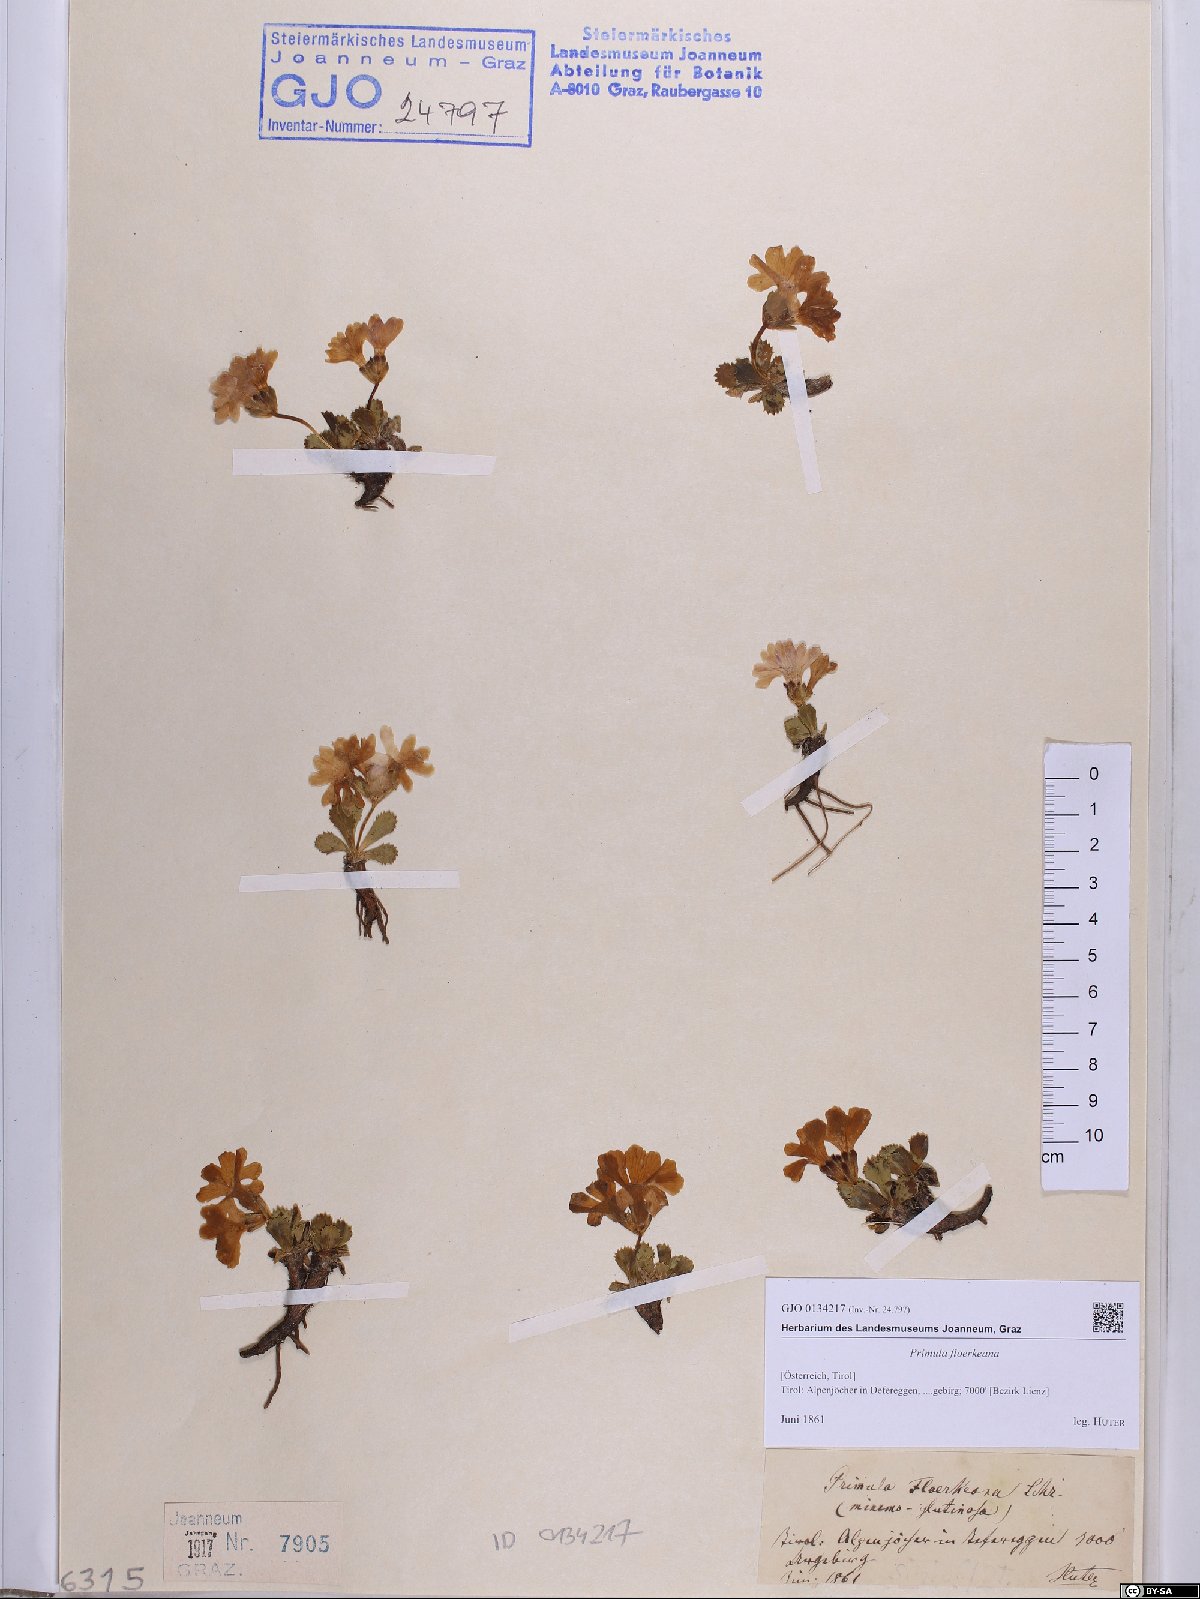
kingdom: Plantae
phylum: Tracheophyta
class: Magnoliopsida
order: Ericales
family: Primulaceae
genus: Primula
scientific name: Primula floerkeana
